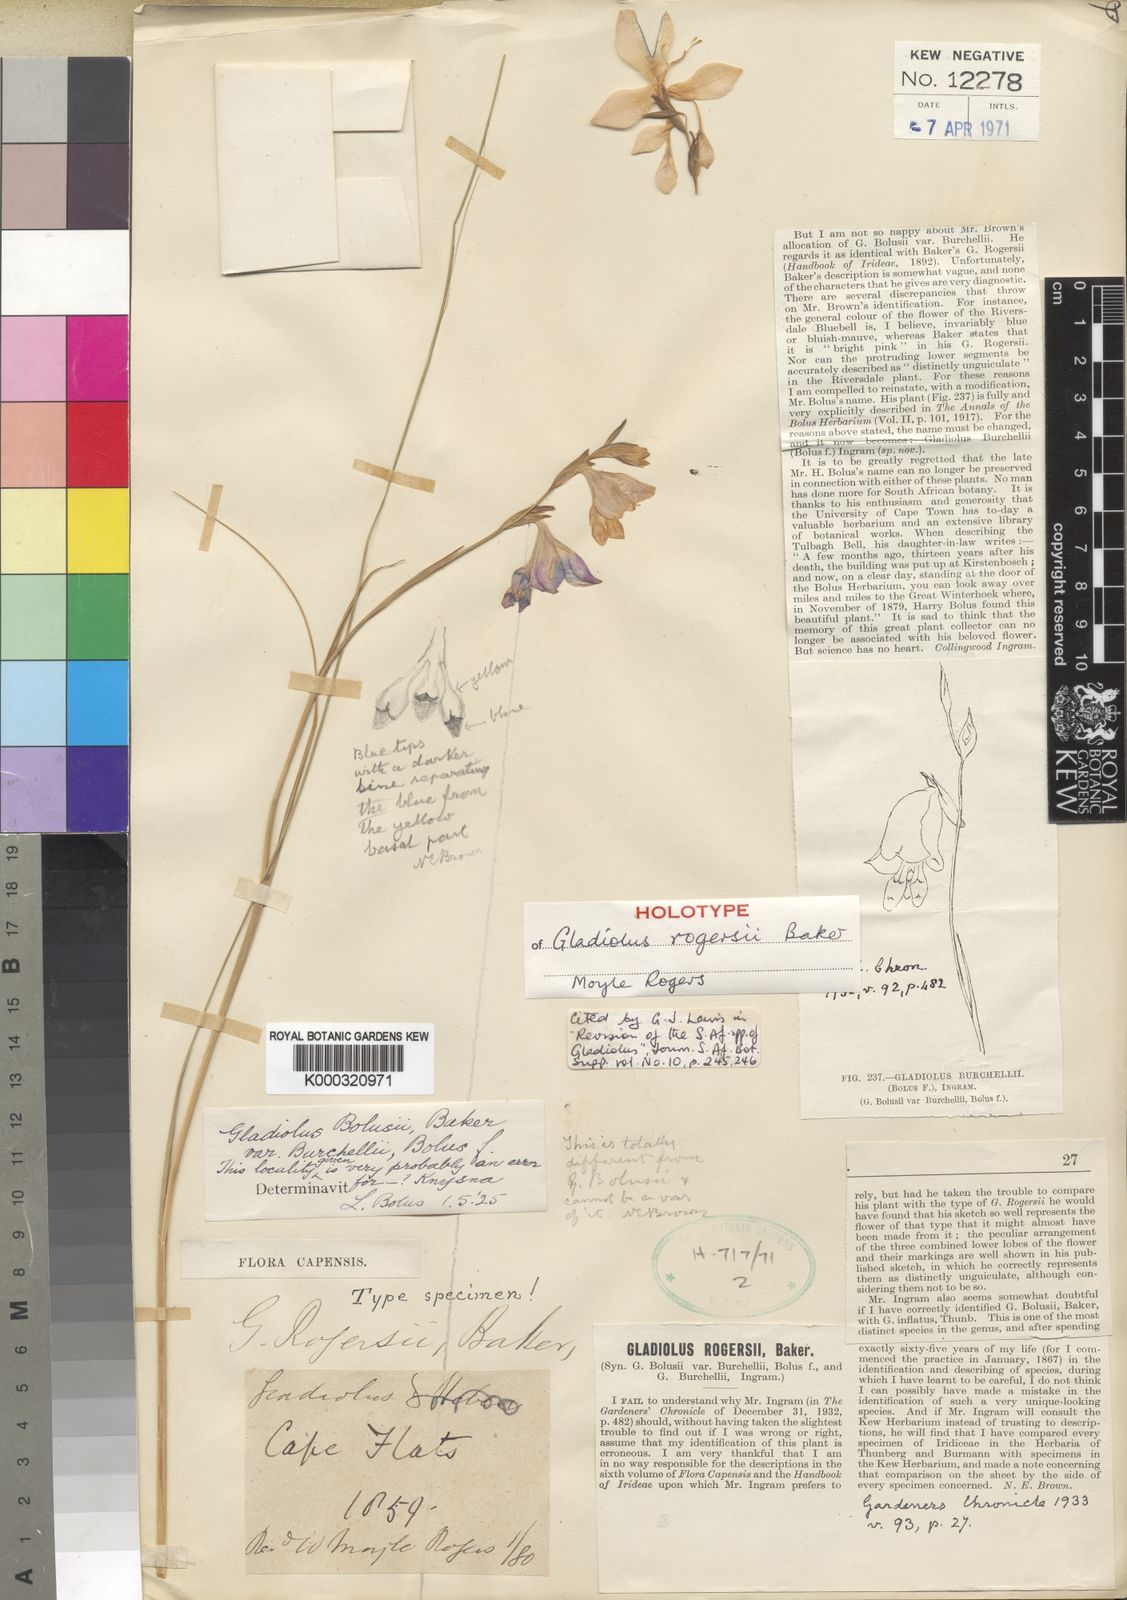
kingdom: Plantae
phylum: Tracheophyta
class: Liliopsida
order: Asparagales
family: Iridaceae
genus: Gladiolus
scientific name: Gladiolus rogersii
